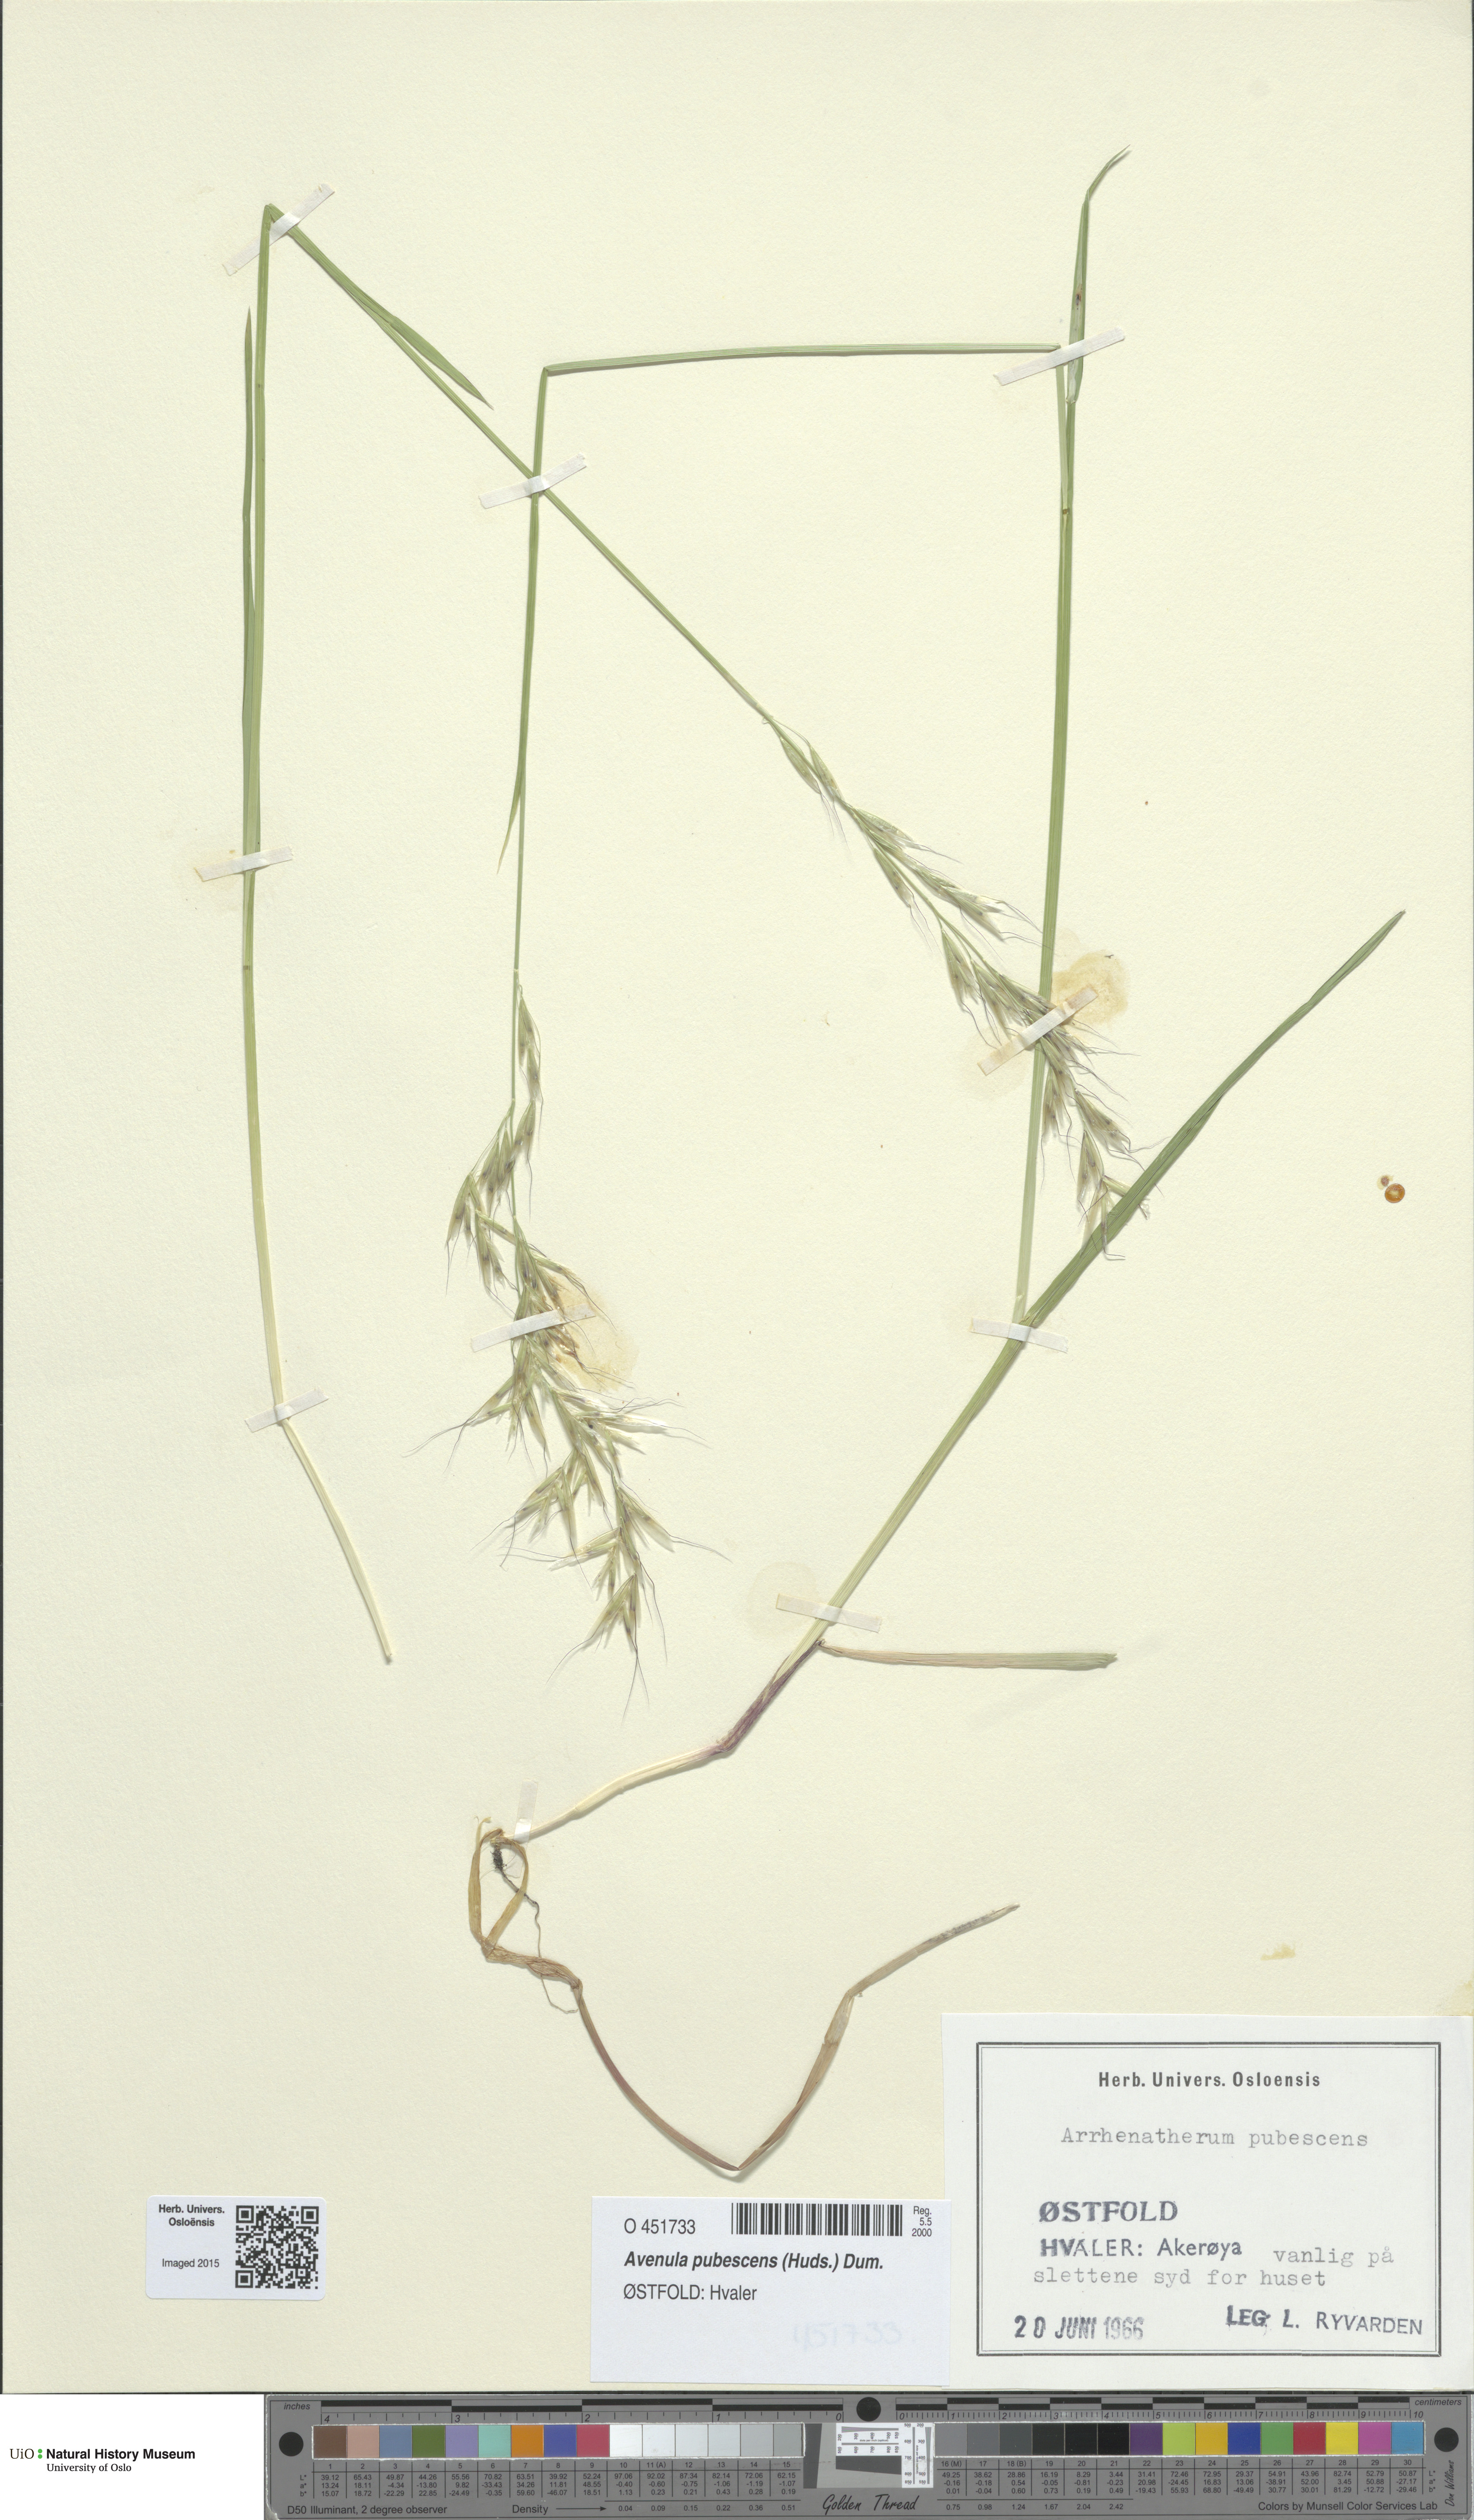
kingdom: Plantae
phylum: Tracheophyta
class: Liliopsida
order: Poales
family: Poaceae
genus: Avenula
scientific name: Avenula pubescens
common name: Downy alpine oatgrass
